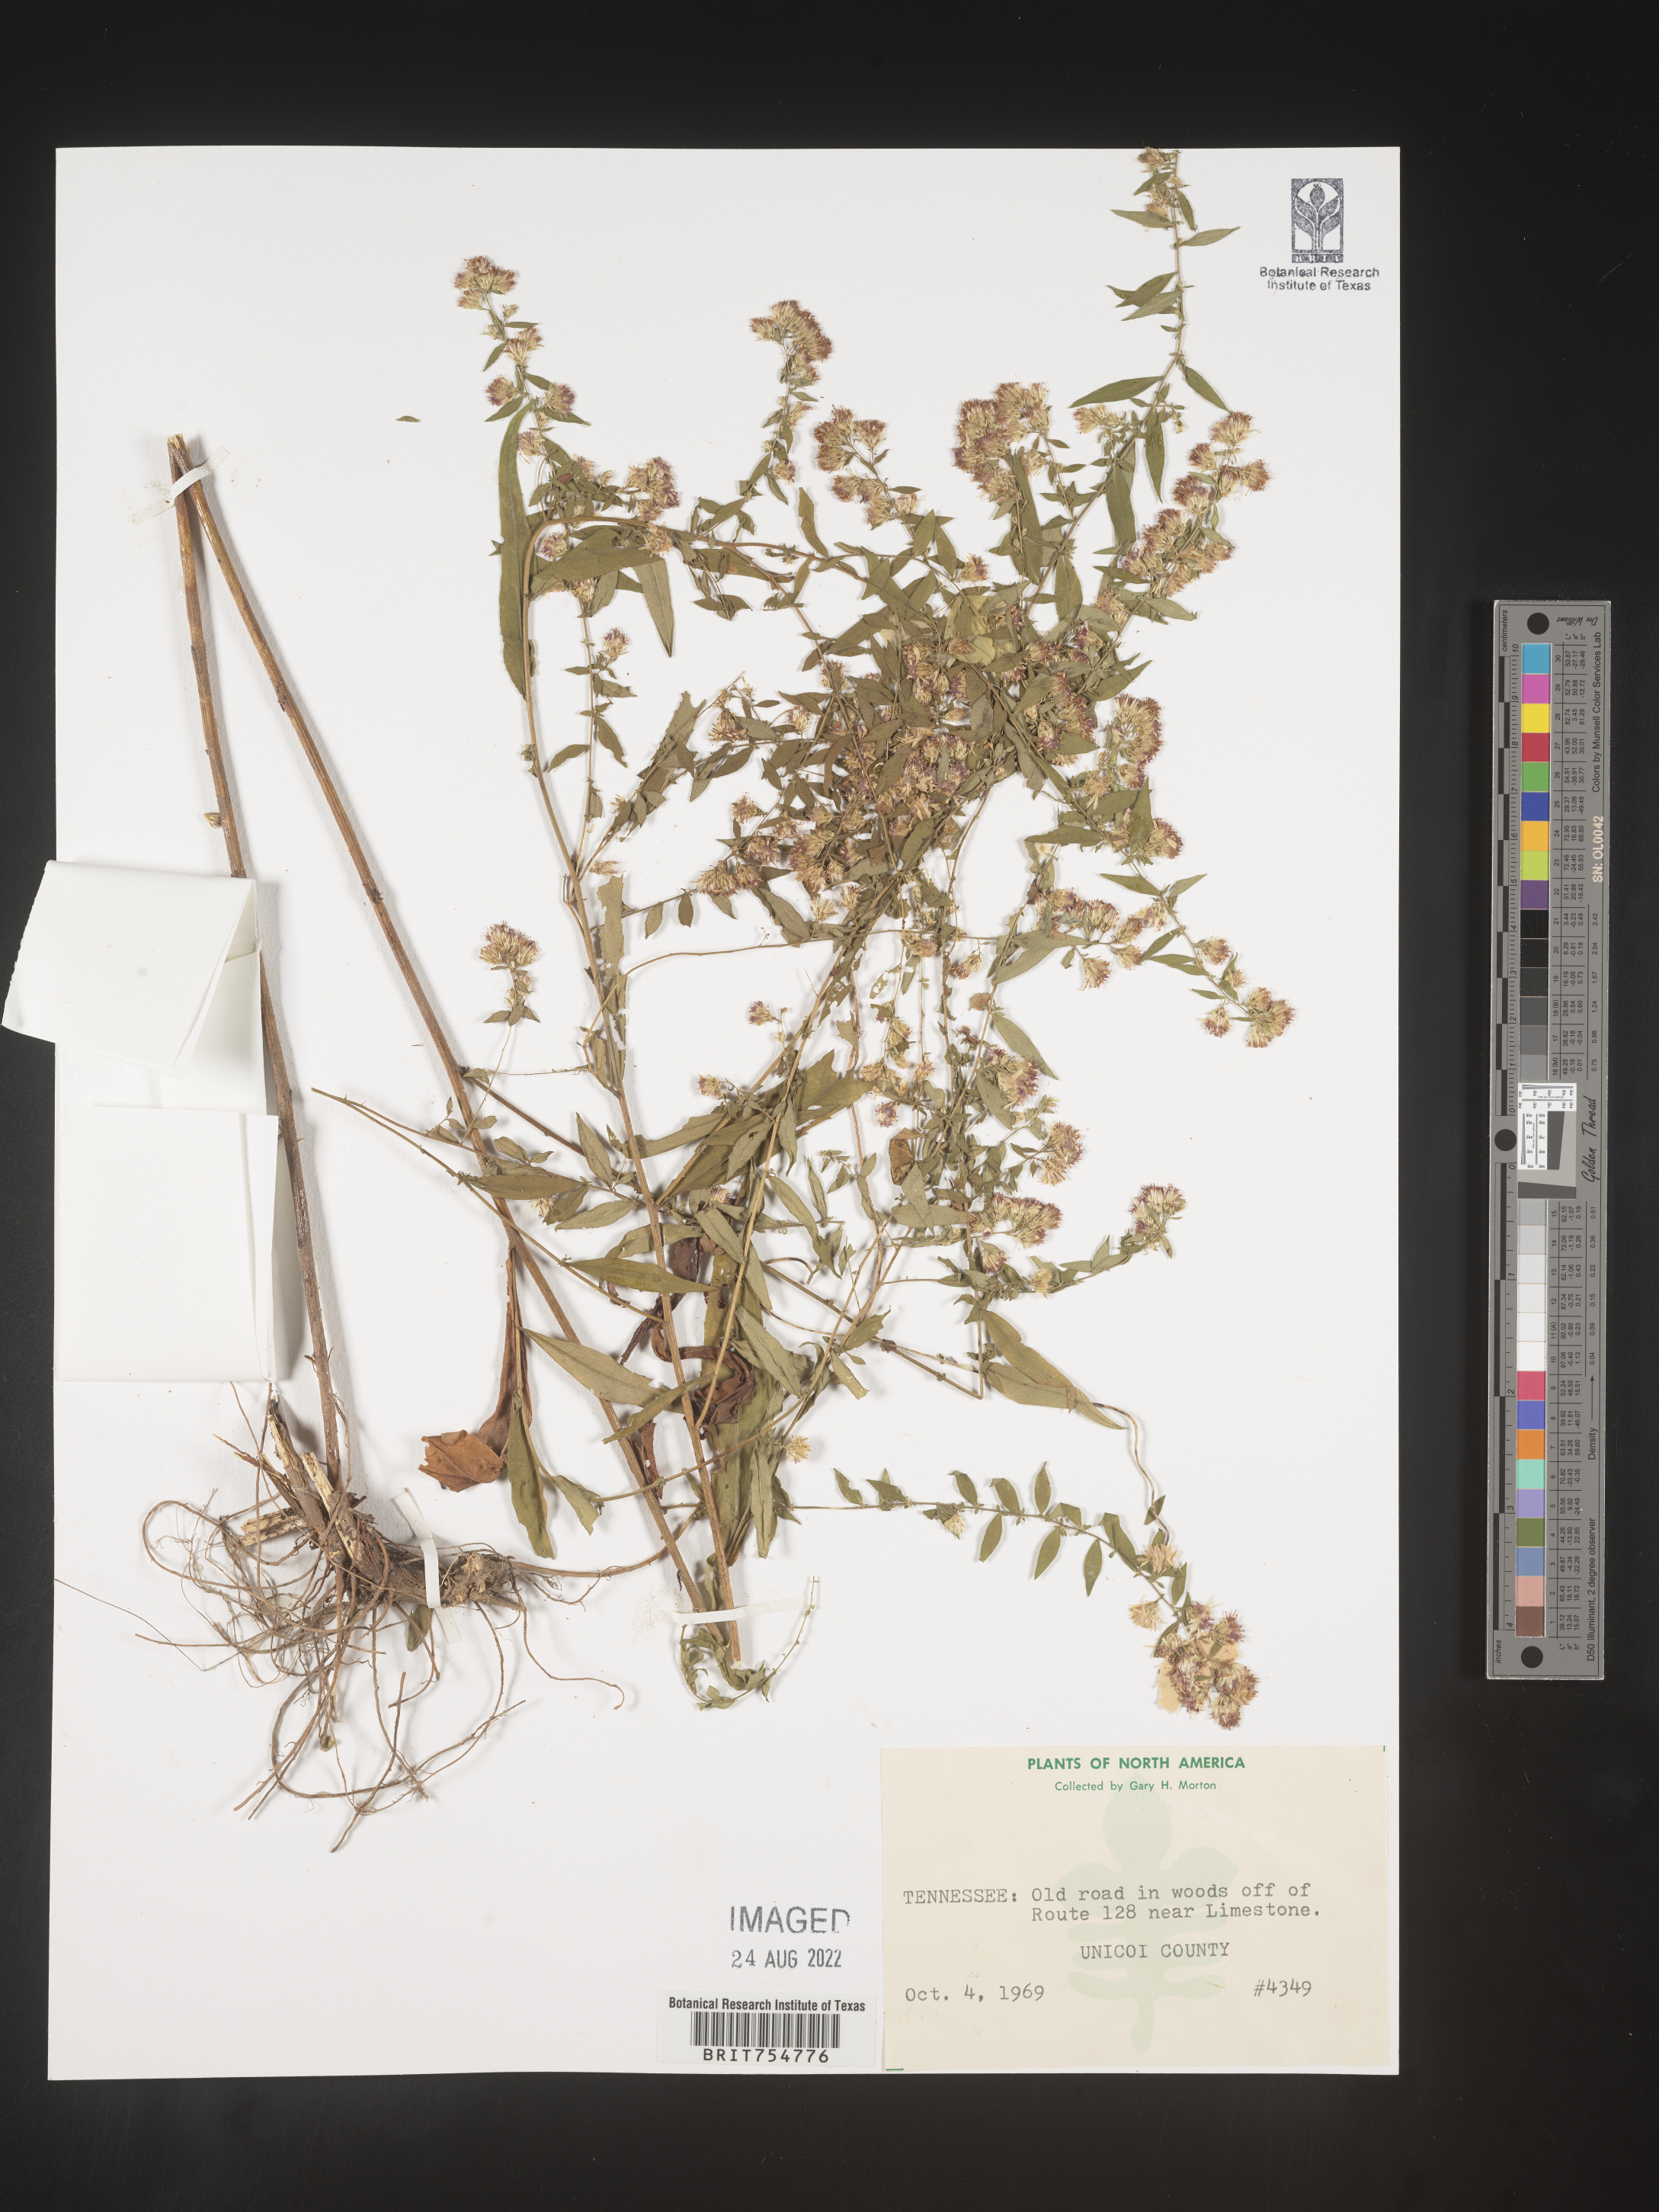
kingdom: Plantae
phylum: Tracheophyta
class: Magnoliopsida
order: Asterales
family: Asteraceae
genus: Symphyotrichum
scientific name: Symphyotrichum
